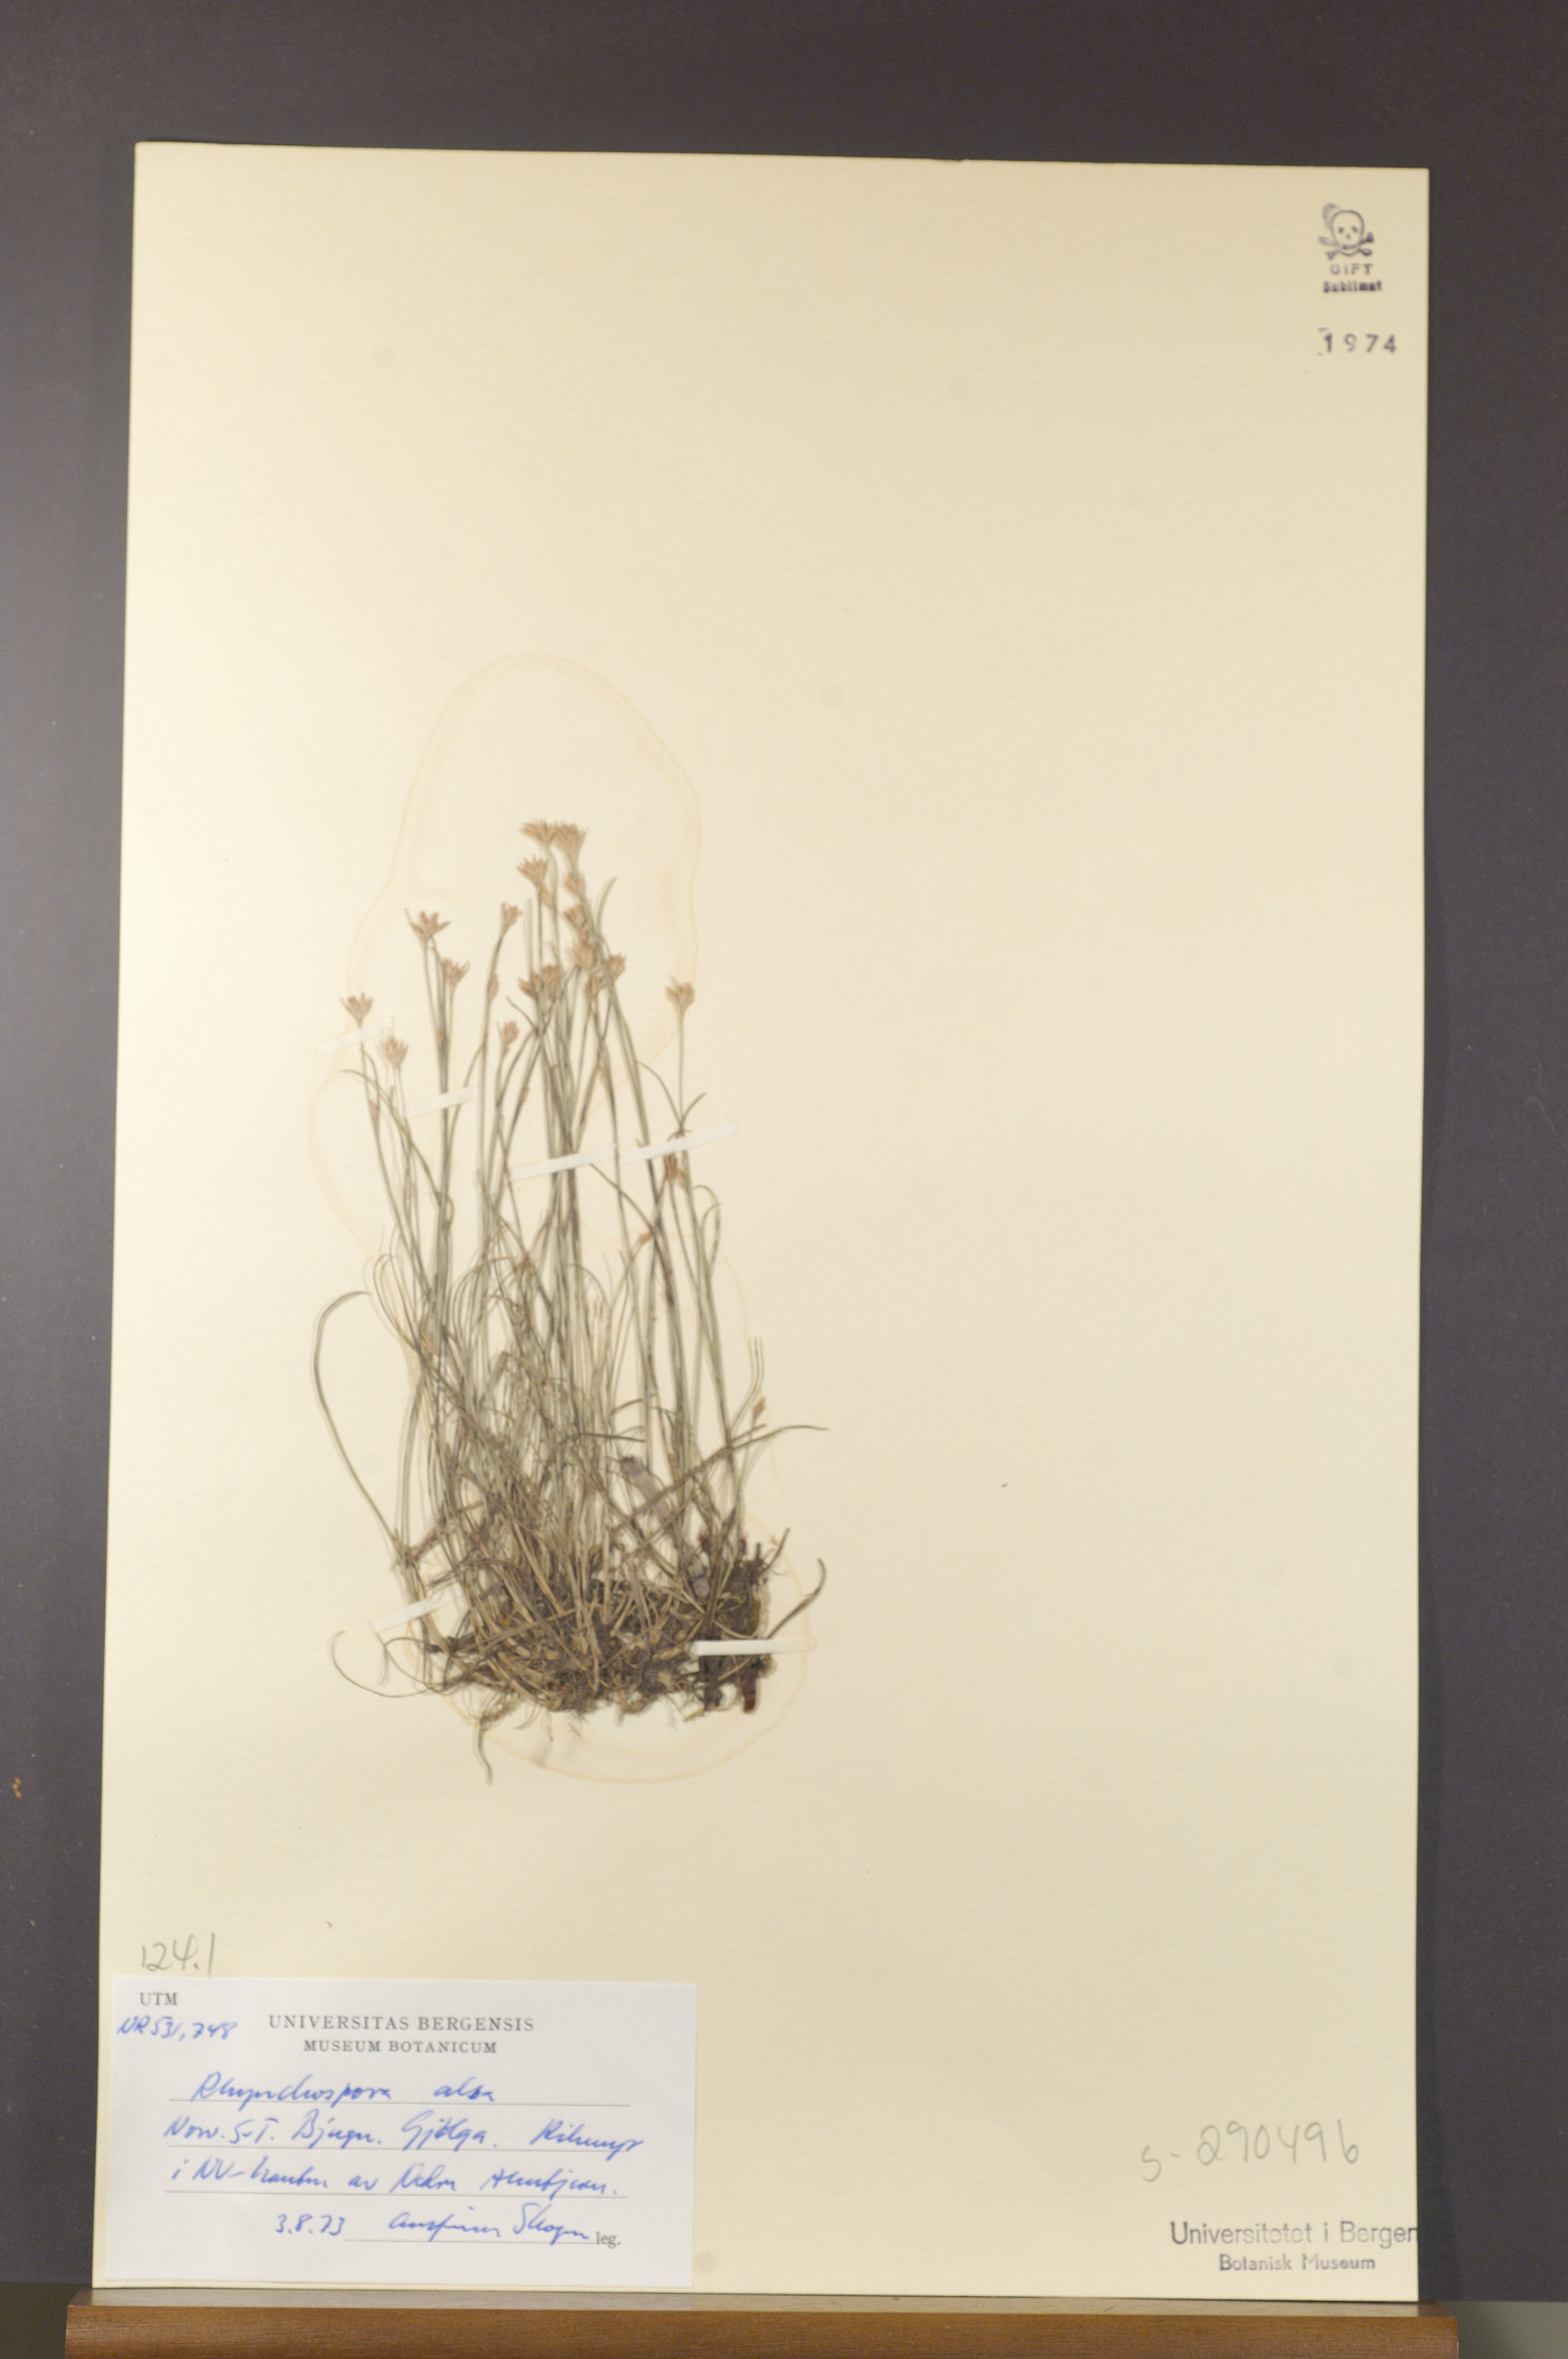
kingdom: Plantae
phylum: Tracheophyta
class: Liliopsida
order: Poales
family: Cyperaceae
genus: Rhynchospora
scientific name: Rhynchospora alba
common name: White beak-sedge
